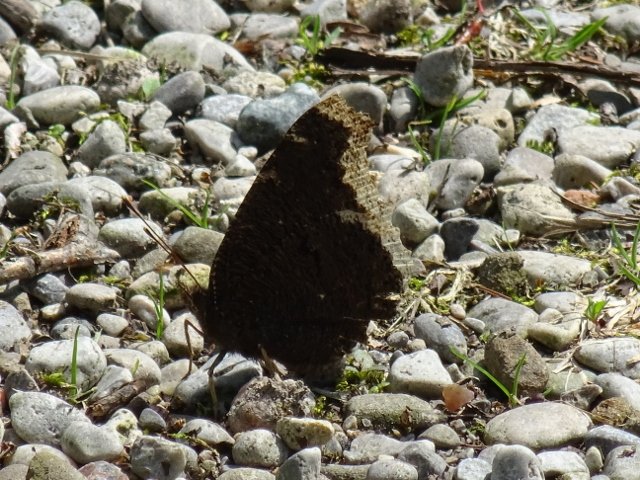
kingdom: Animalia
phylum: Arthropoda
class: Insecta
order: Lepidoptera
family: Nymphalidae
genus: Nymphalis
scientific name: Nymphalis antiopa
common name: Mourning Cloak
